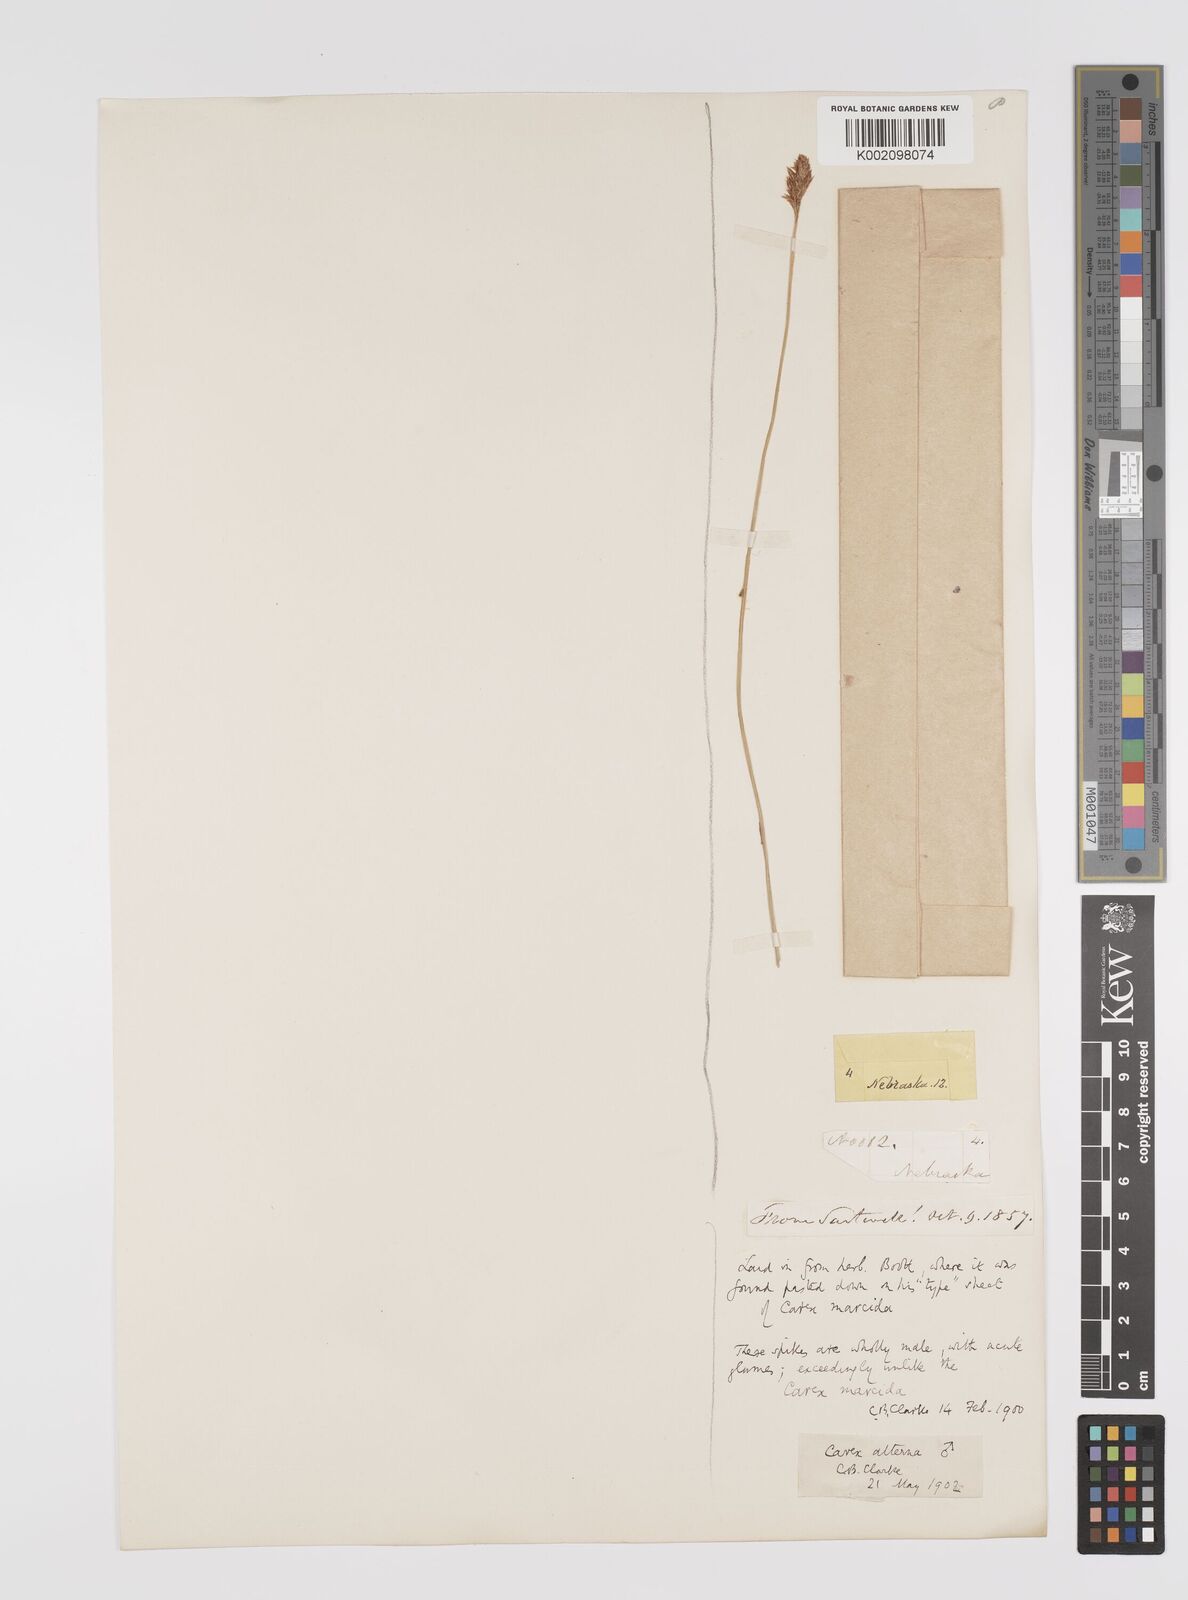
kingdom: Plantae
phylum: Tracheophyta
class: Liliopsida
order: Poales
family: Cyperaceae
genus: Carex
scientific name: Carex praegracilis
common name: Black creeper sedge
